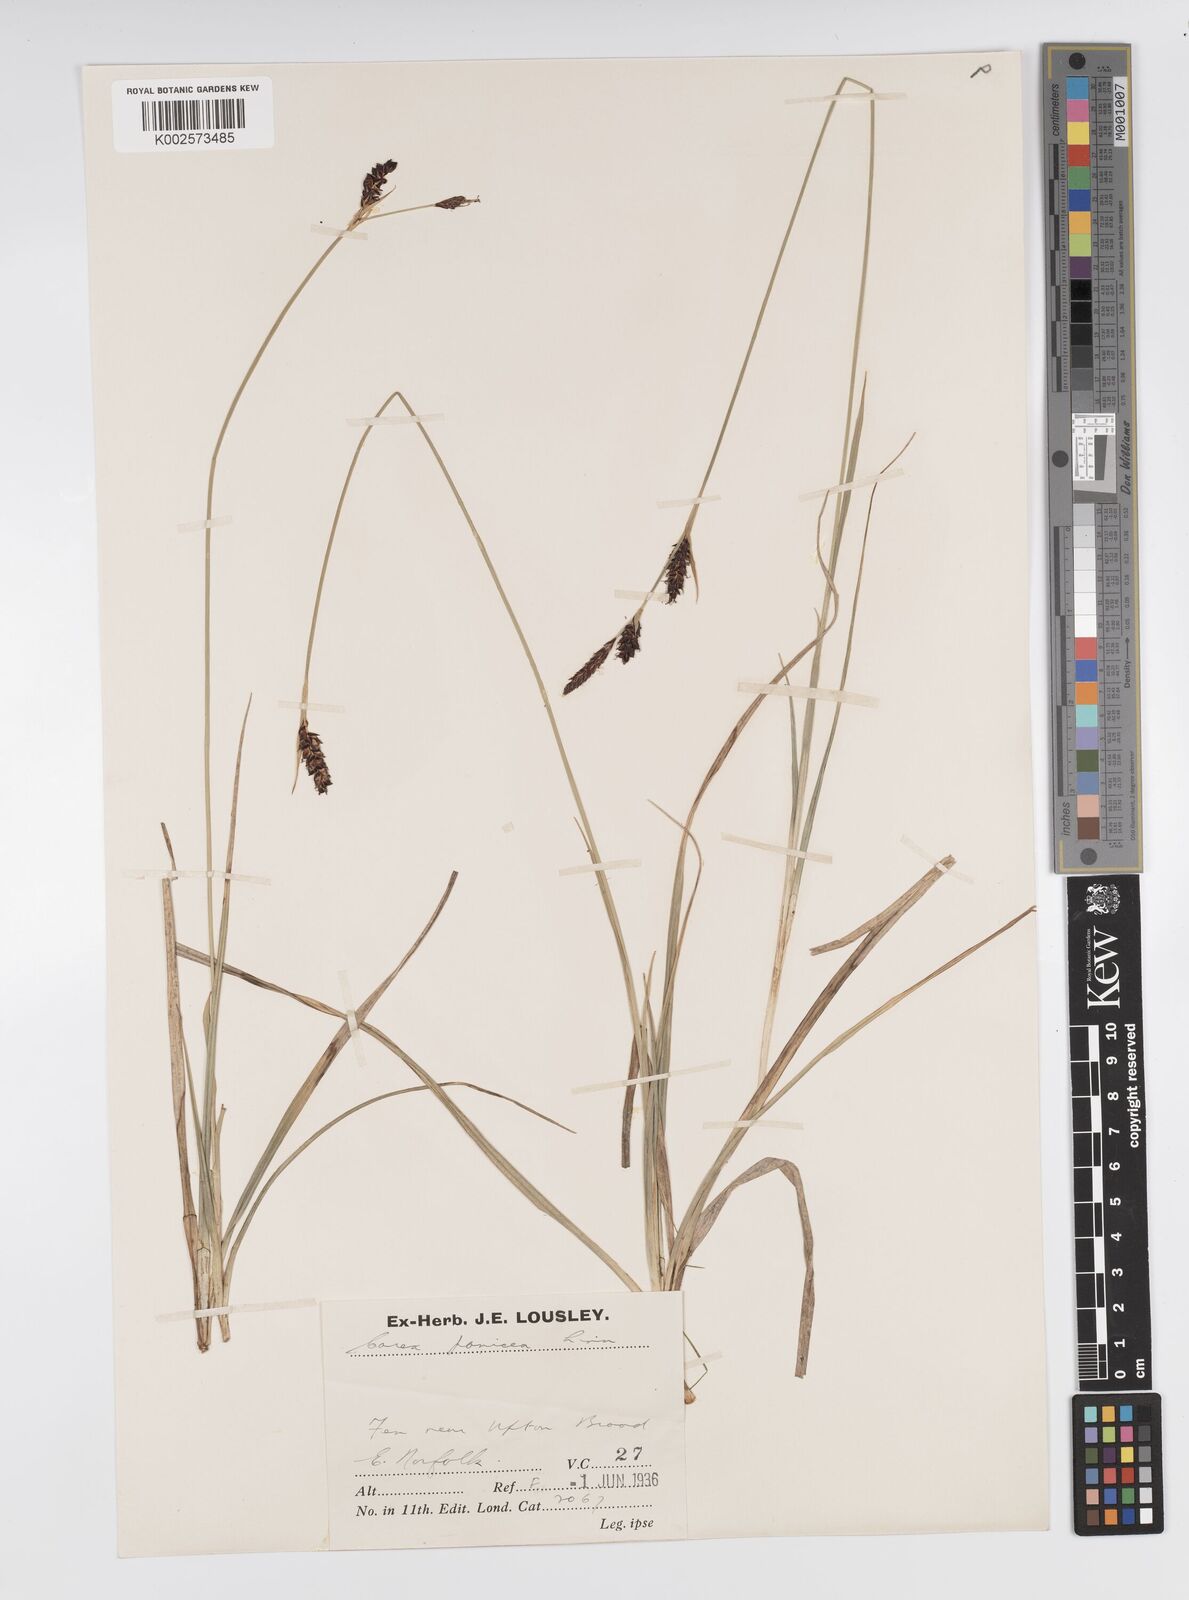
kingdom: Plantae
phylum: Tracheophyta
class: Liliopsida
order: Poales
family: Cyperaceae
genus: Carex
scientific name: Carex panicea
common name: Carnation sedge
